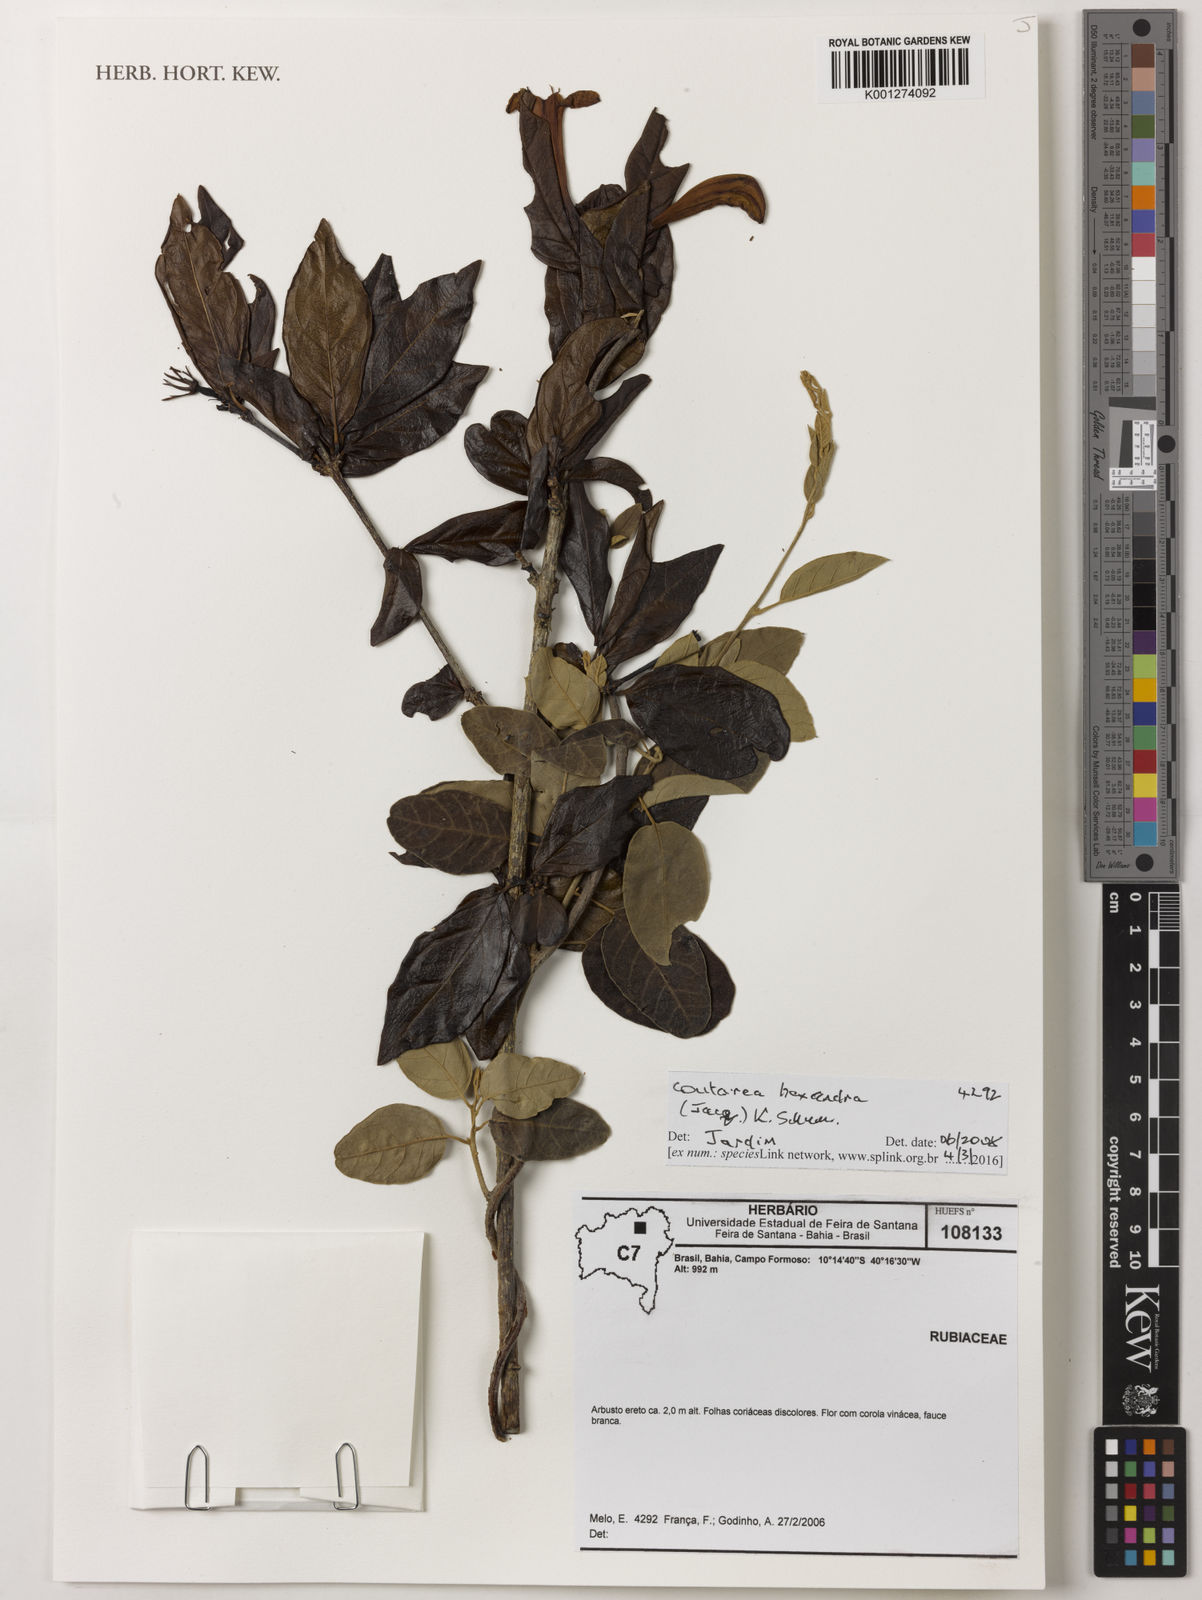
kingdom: Plantae
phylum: Tracheophyta
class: Magnoliopsida
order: Gentianales
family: Rubiaceae
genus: Coutarea
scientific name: Coutarea hexandra
